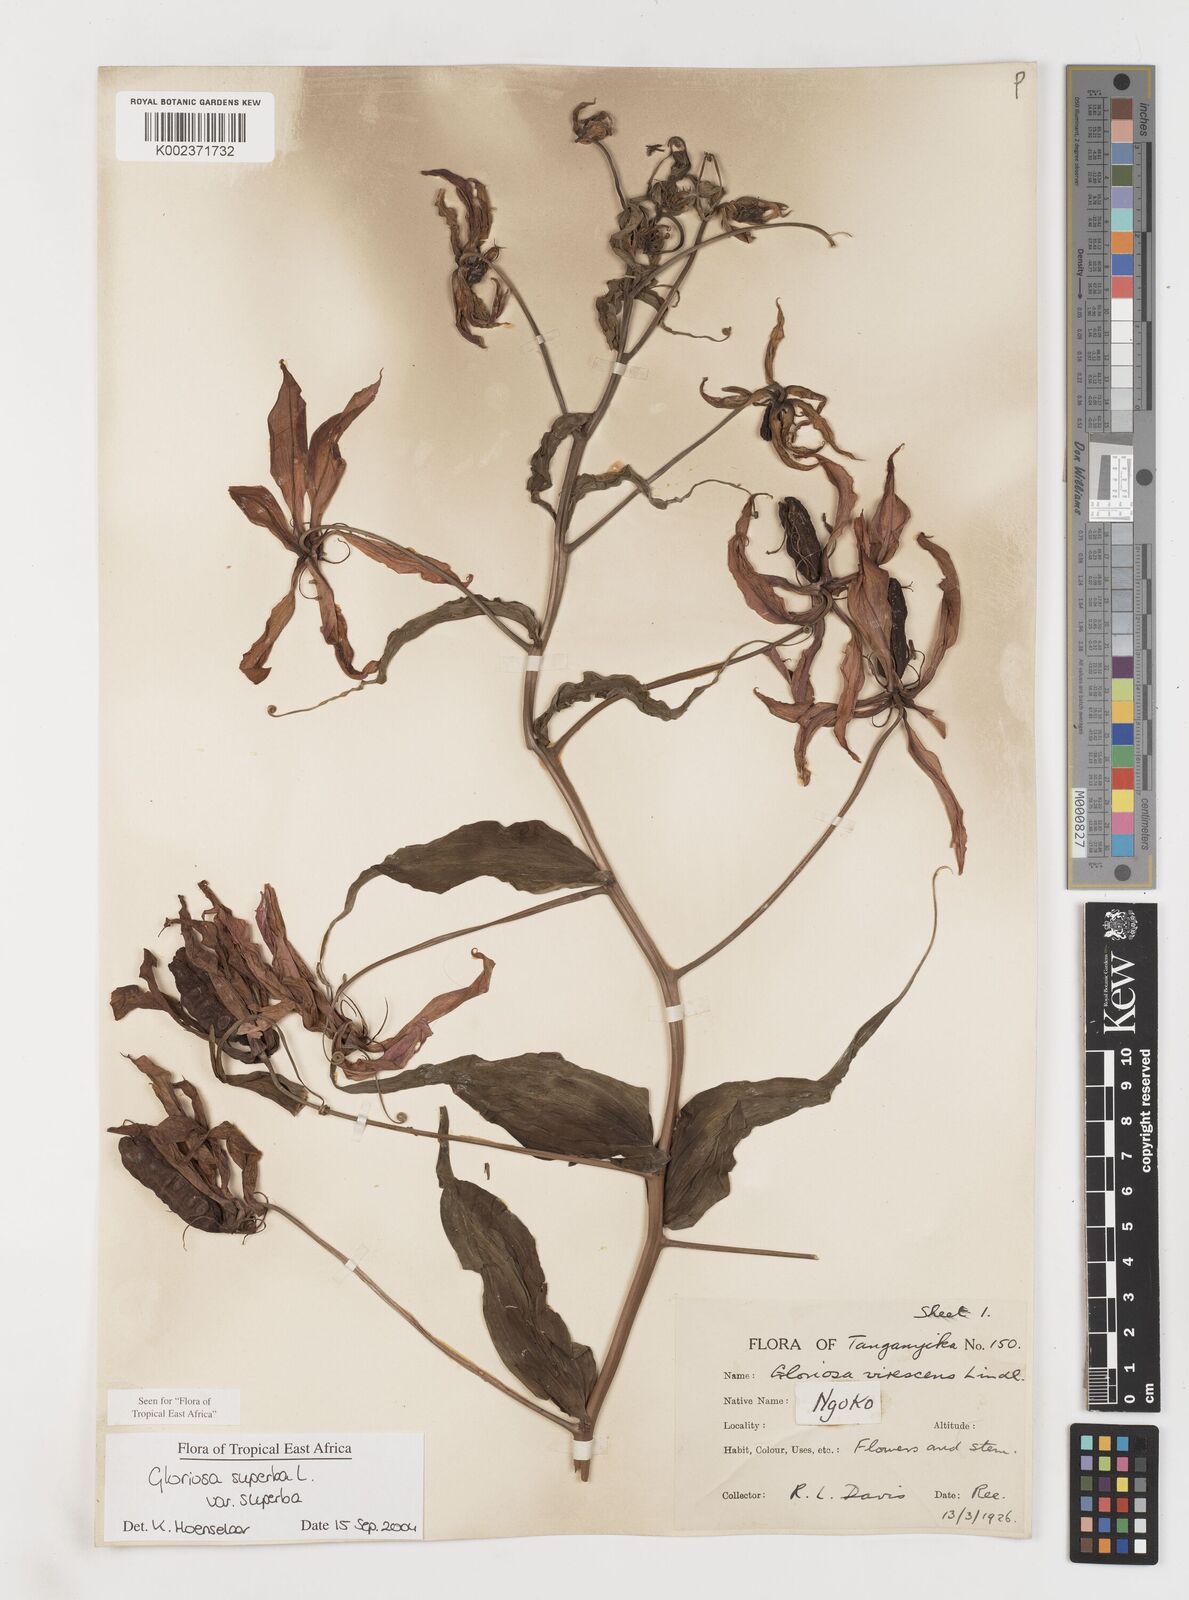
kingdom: Plantae
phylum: Tracheophyta
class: Liliopsida
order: Liliales
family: Colchicaceae
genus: Gloriosa
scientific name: Gloriosa simplex
